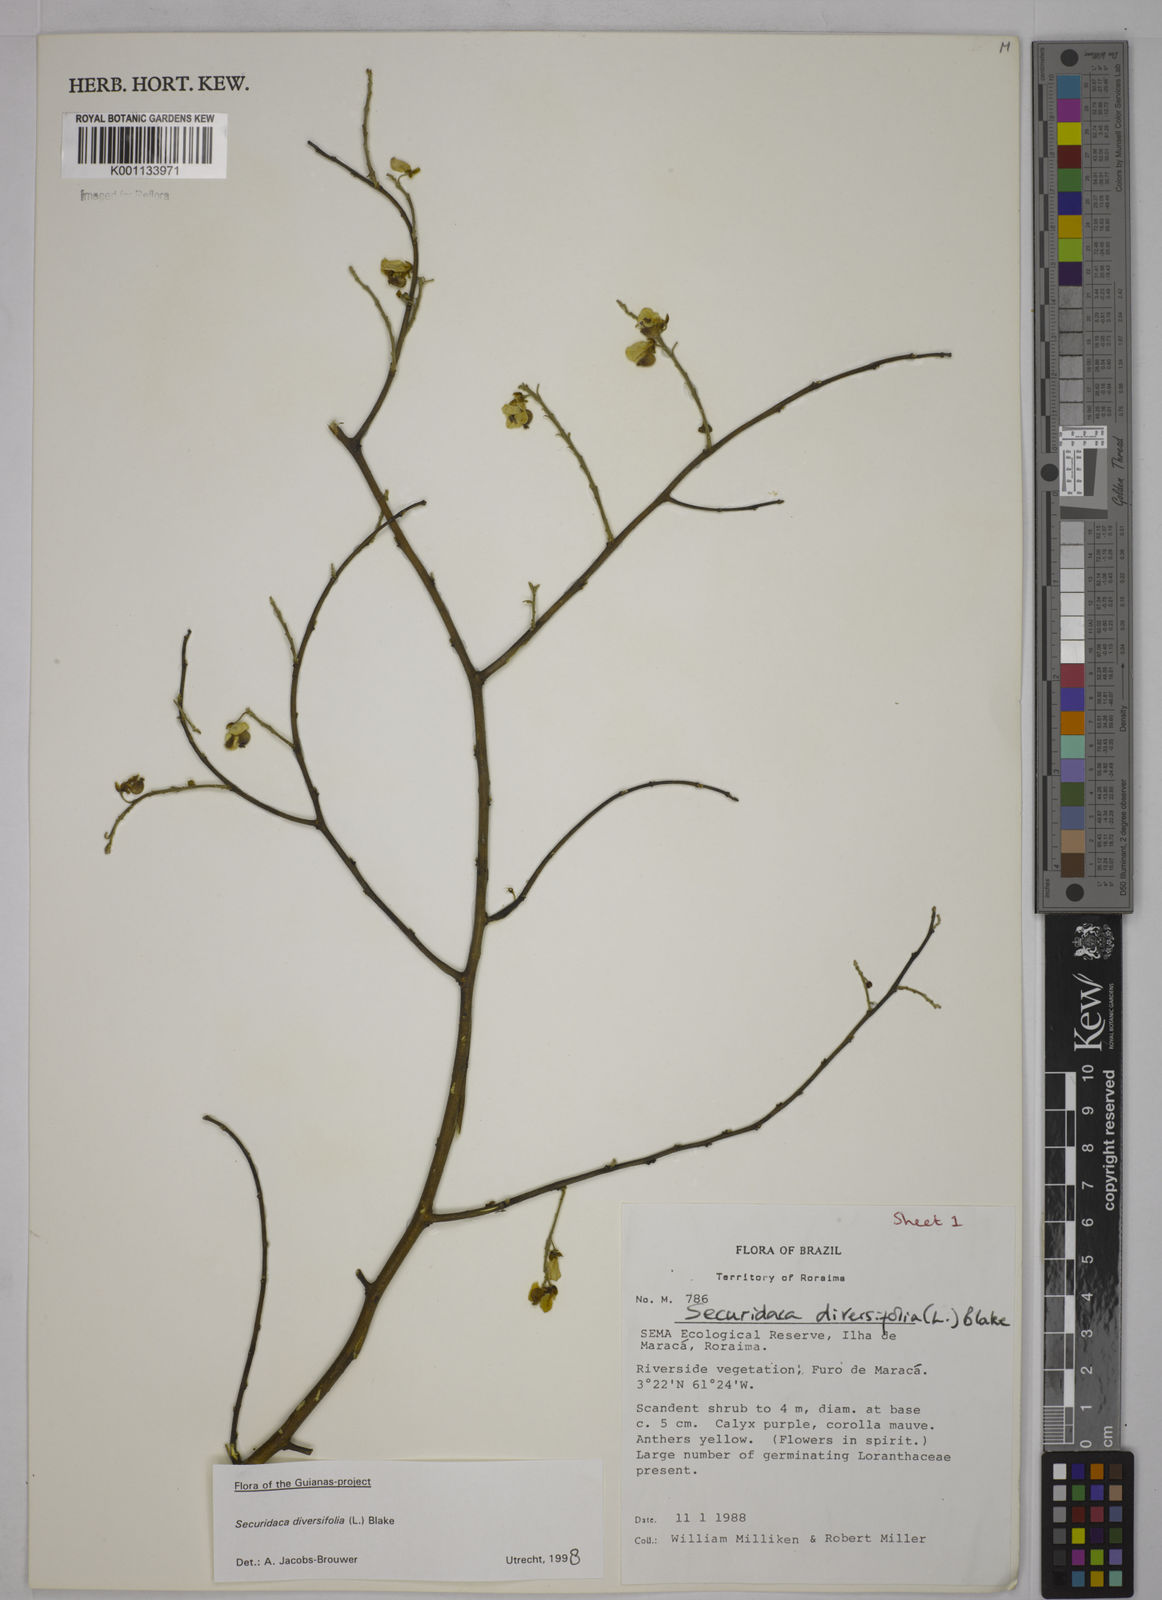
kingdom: Plantae
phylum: Tracheophyta
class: Magnoliopsida
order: Fabales
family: Polygalaceae
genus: Securidaca
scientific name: Securidaca diversifolia
